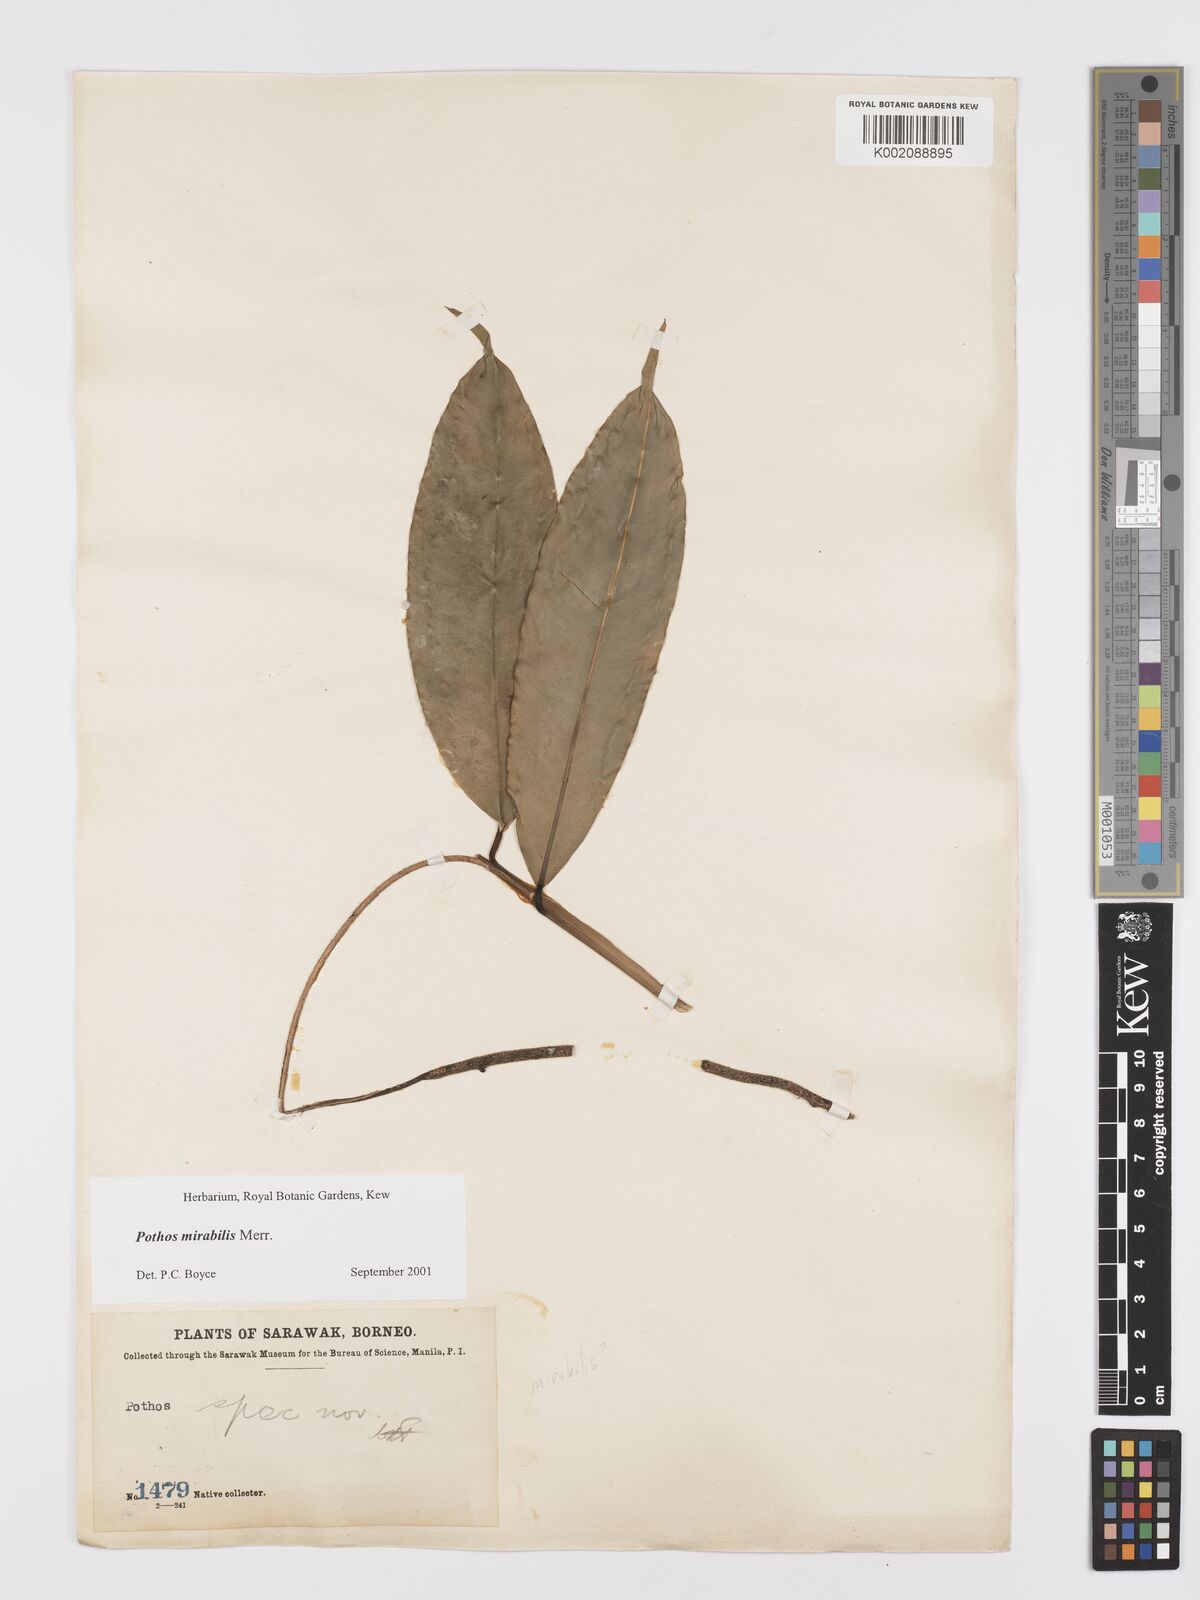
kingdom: Plantae
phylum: Tracheophyta
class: Liliopsida
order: Alismatales
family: Araceae
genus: Pothos
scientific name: Pothos mirabilis
